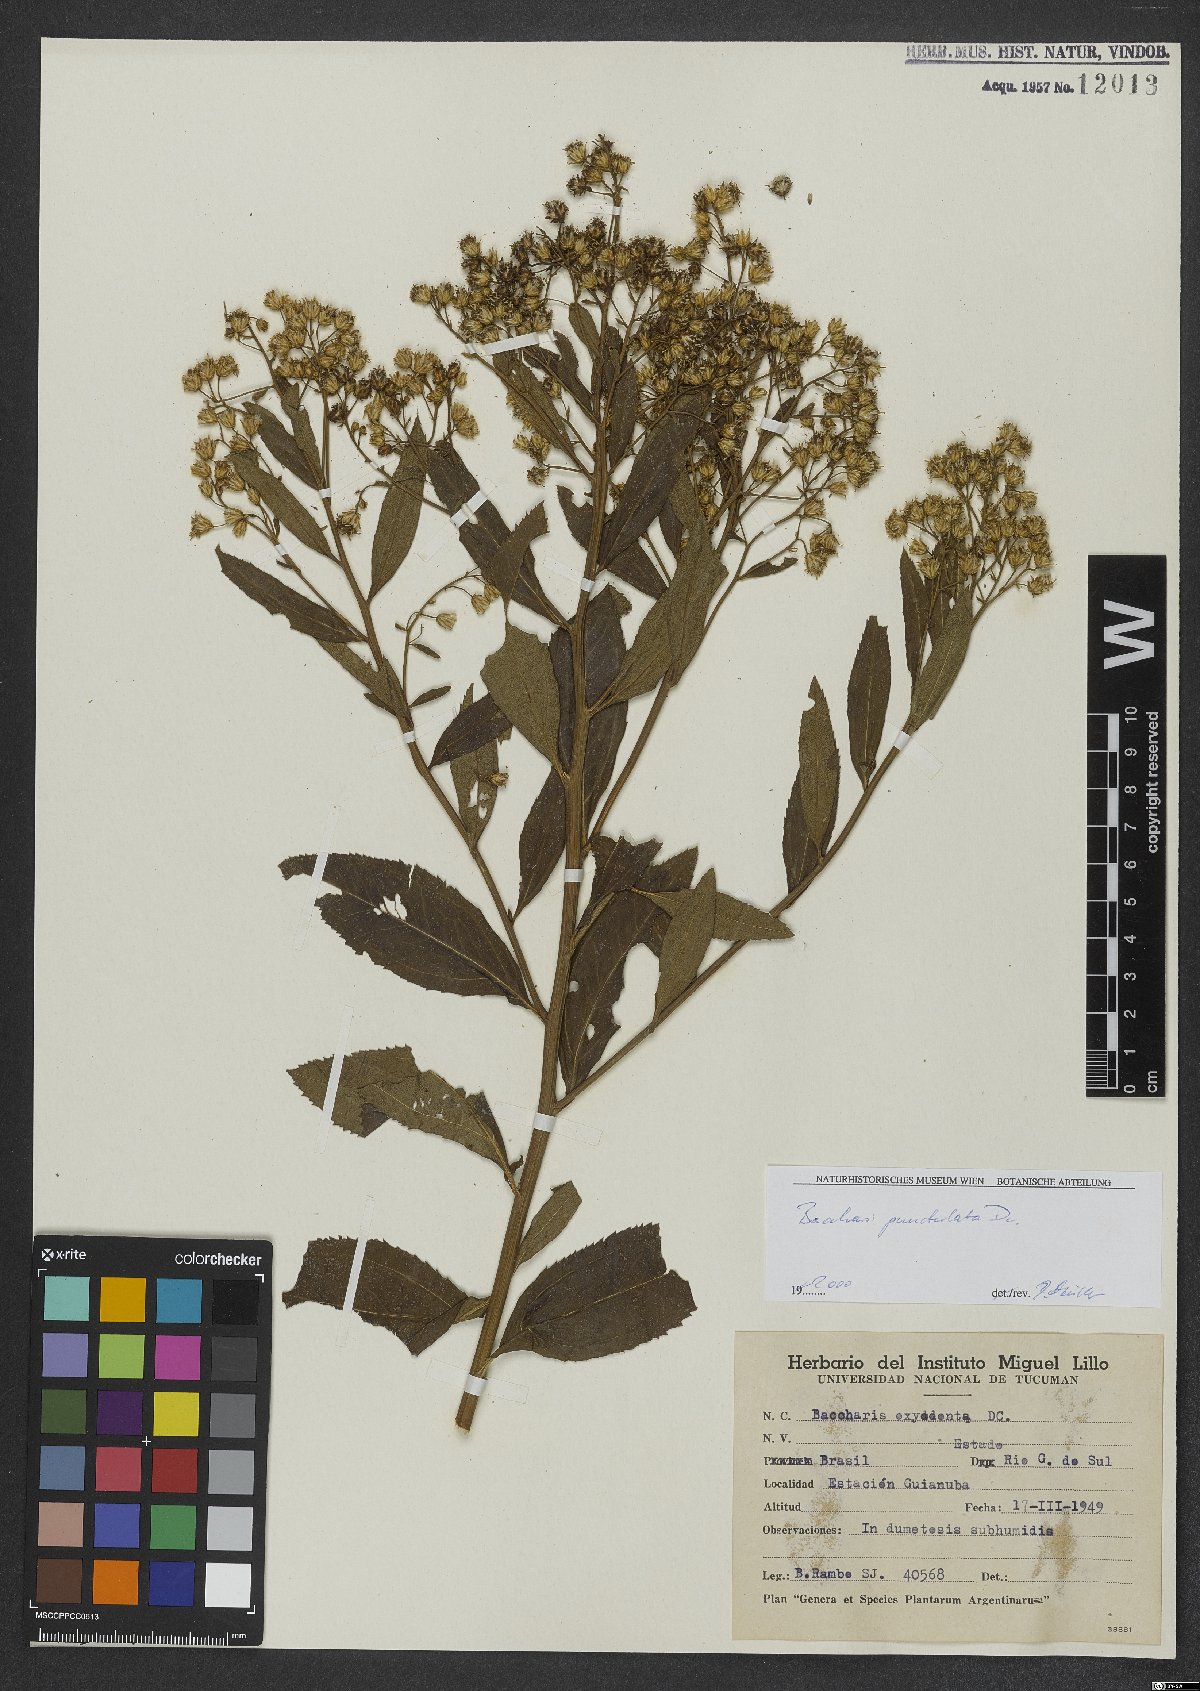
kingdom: Plantae
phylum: Tracheophyta
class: Magnoliopsida
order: Asterales
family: Asteraceae
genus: Baccharis
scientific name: Baccharis punctulata
